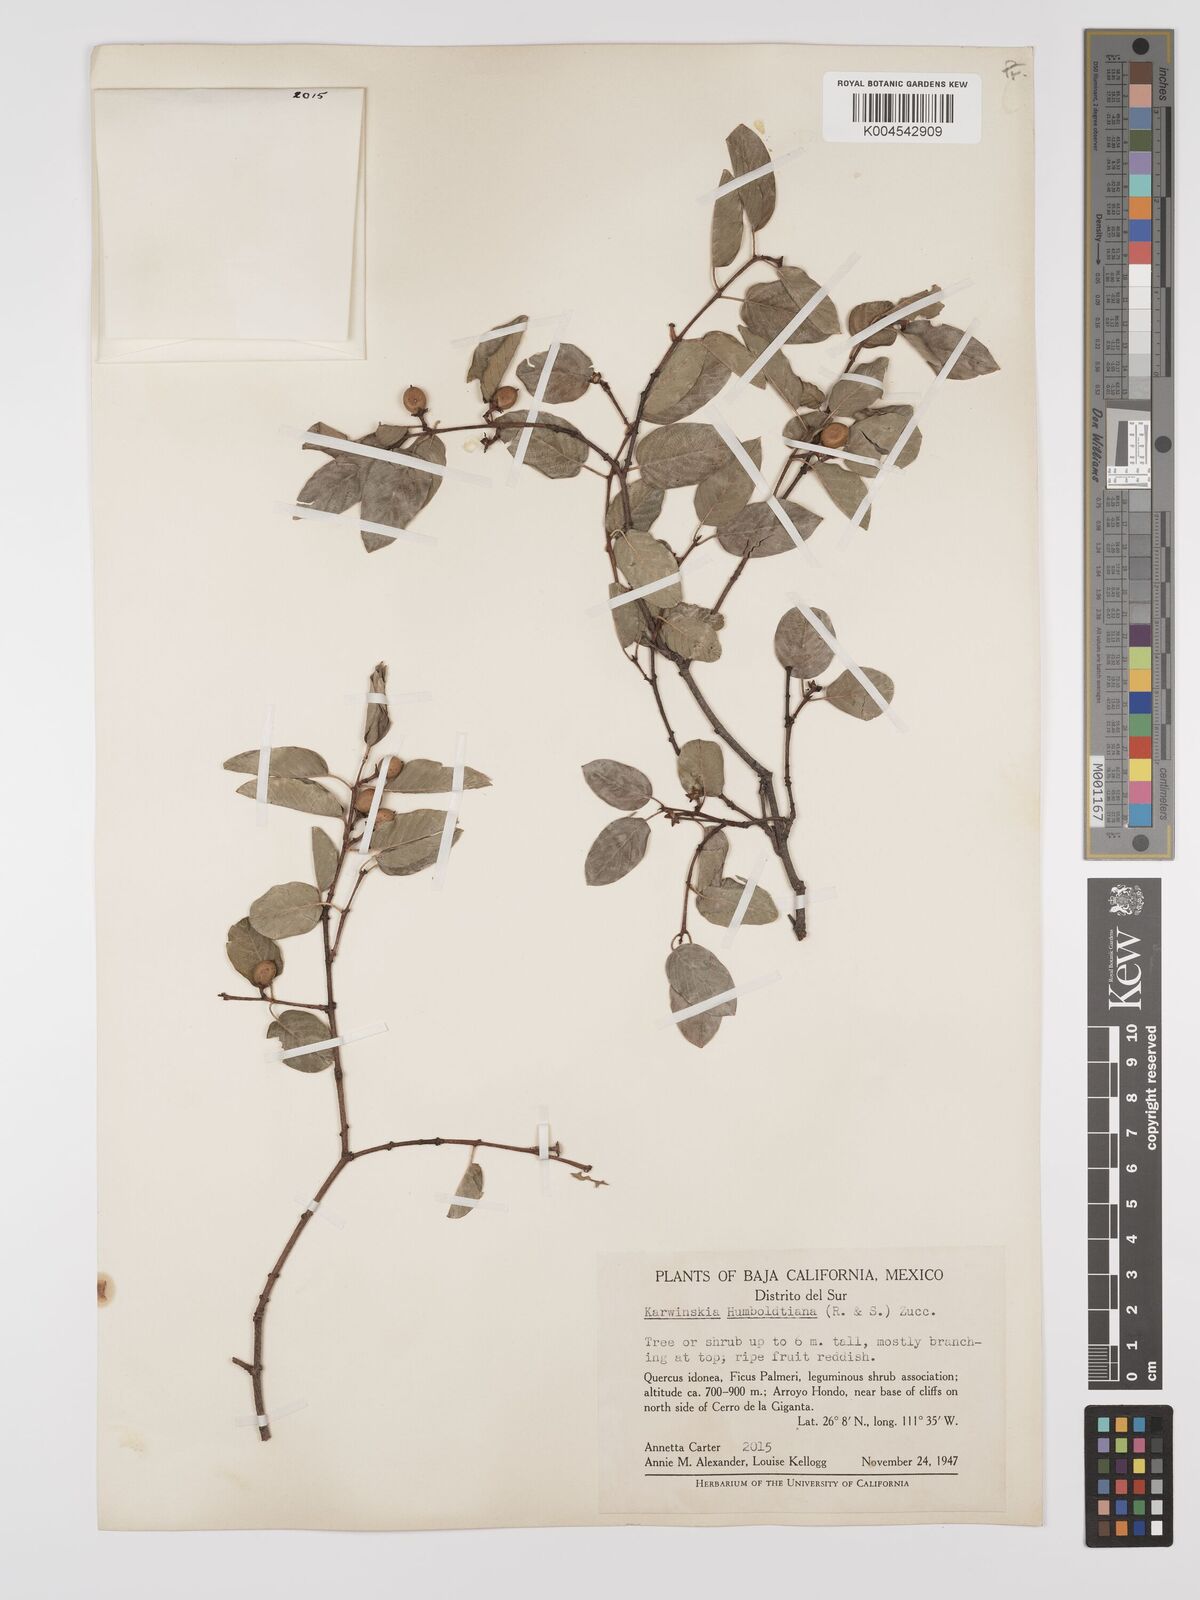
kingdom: Plantae
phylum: Tracheophyta
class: Magnoliopsida
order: Rosales
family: Rhamnaceae
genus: Karwinskia
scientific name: Karwinskia humboldtiana
